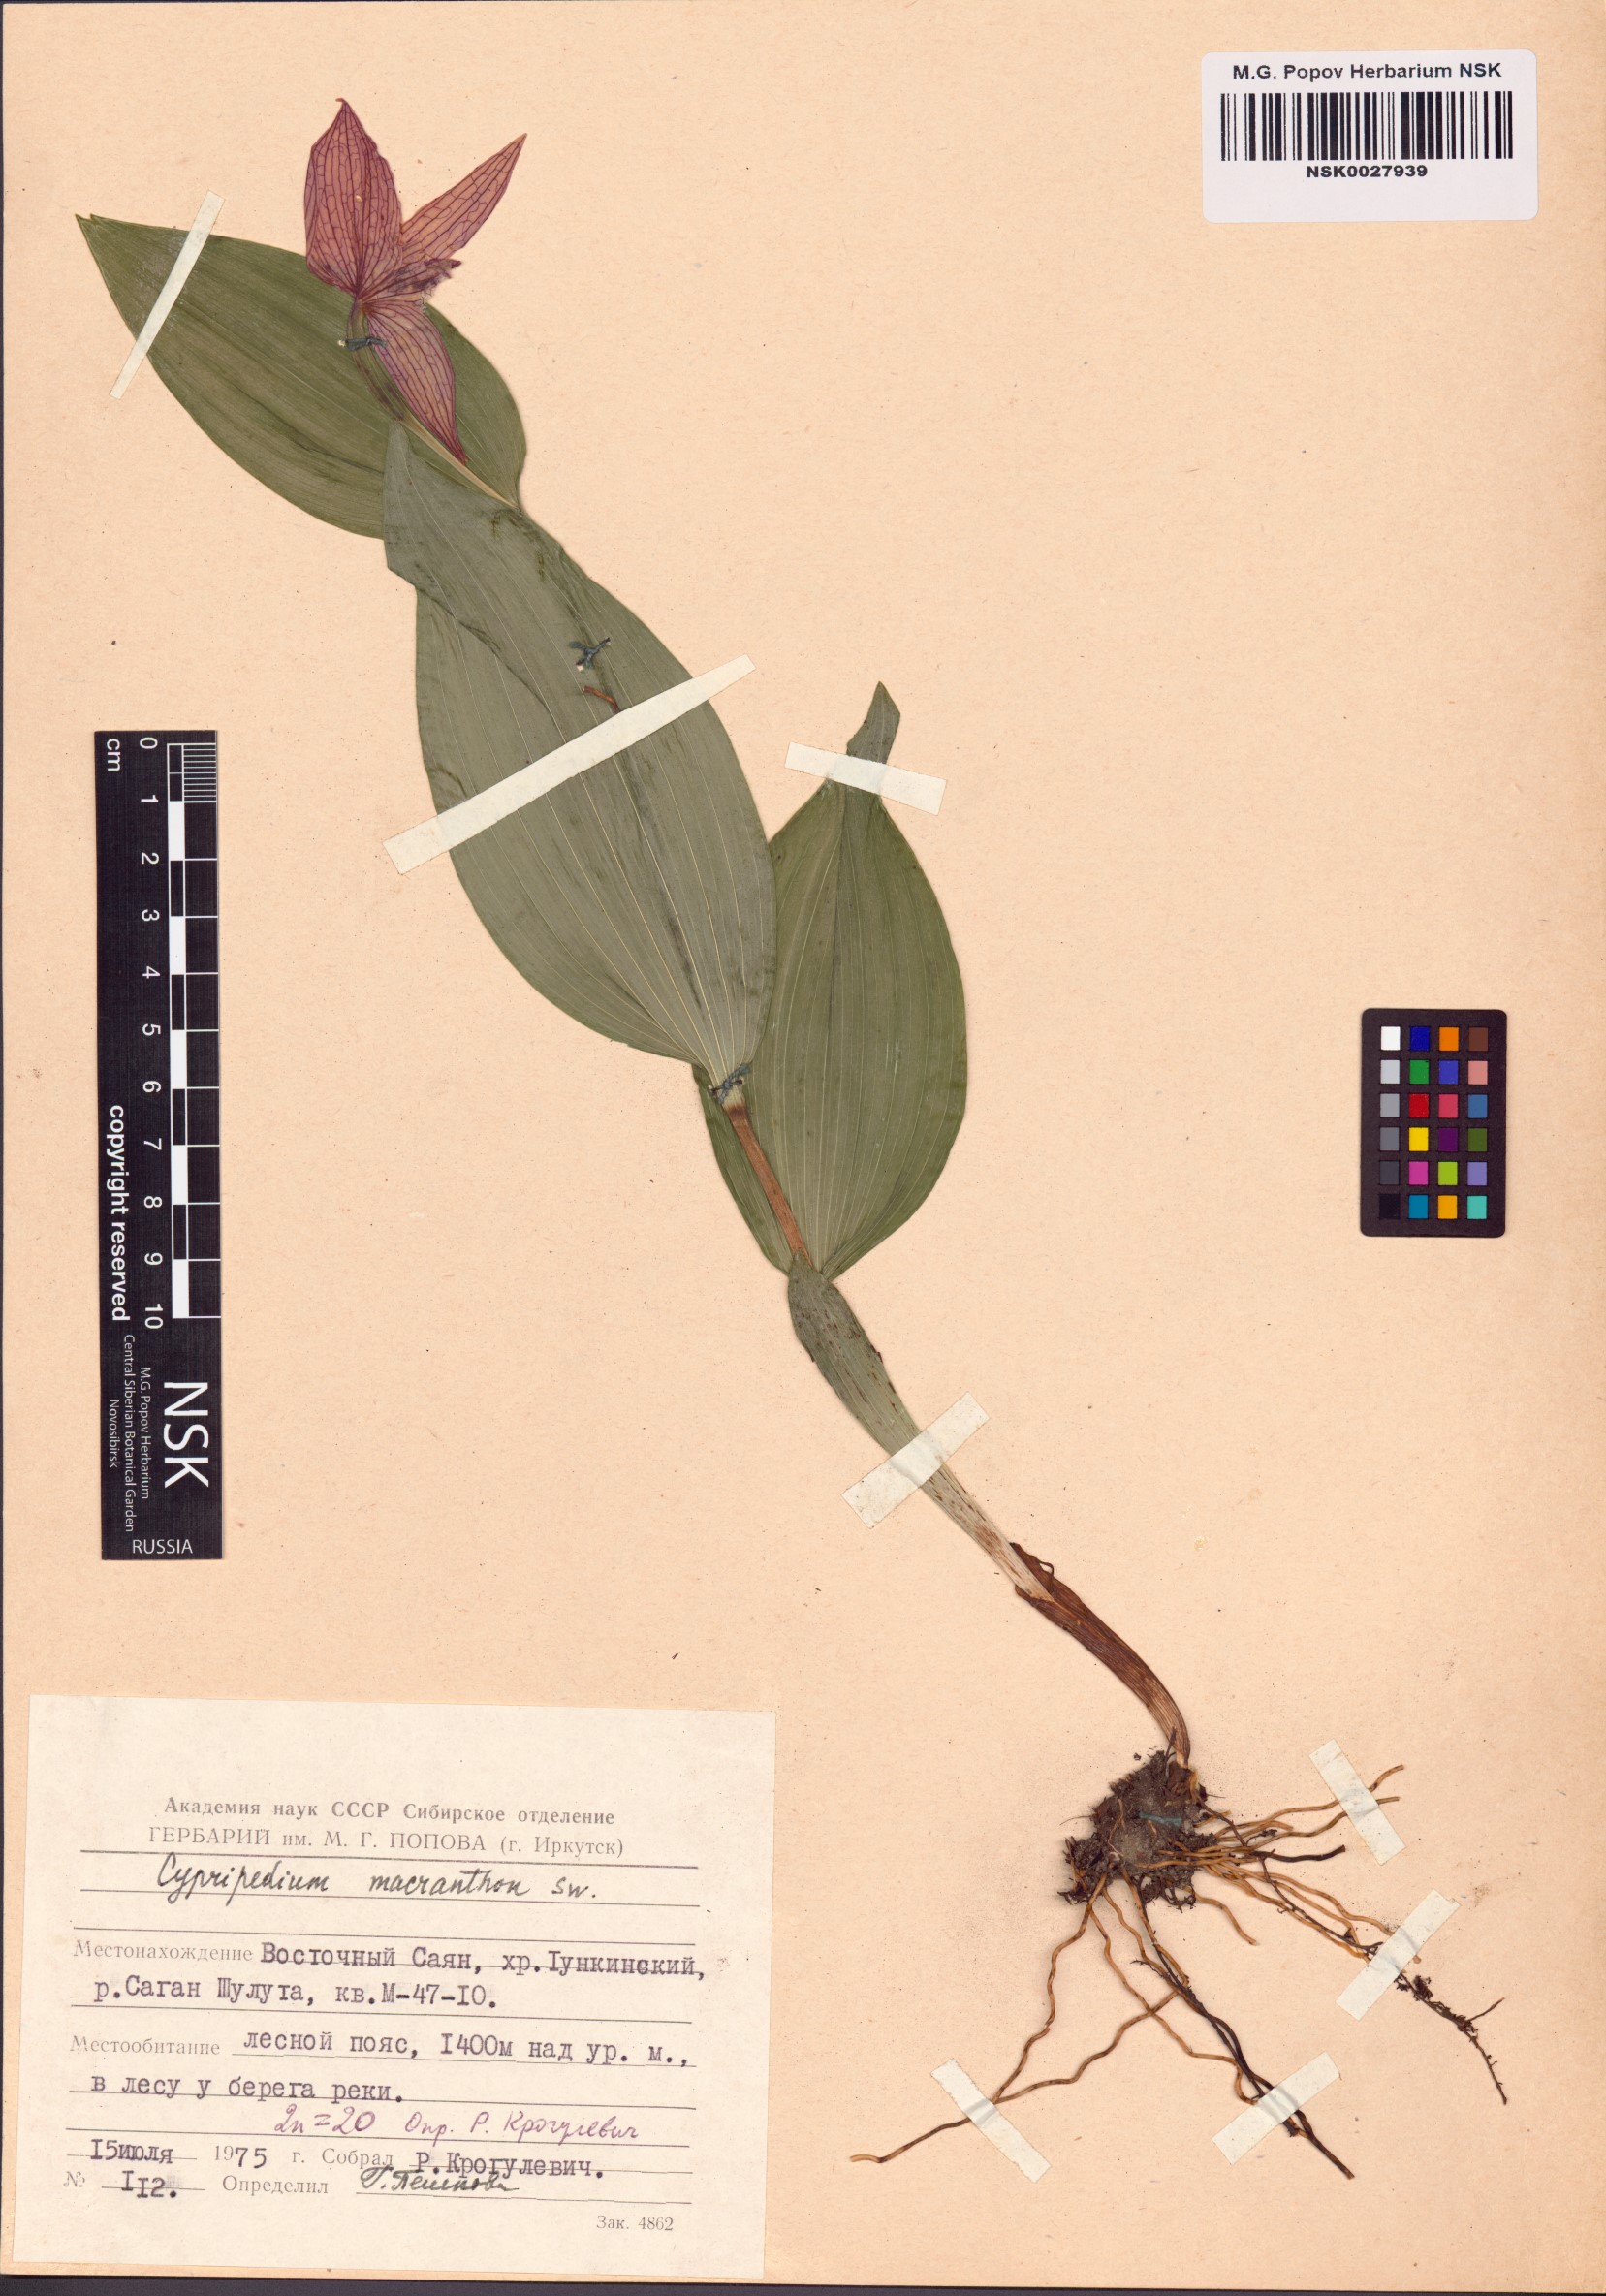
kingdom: Plantae
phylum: Tracheophyta
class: Liliopsida
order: Asparagales
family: Orchidaceae
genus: Cypripedium
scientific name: Cypripedium macranthos
